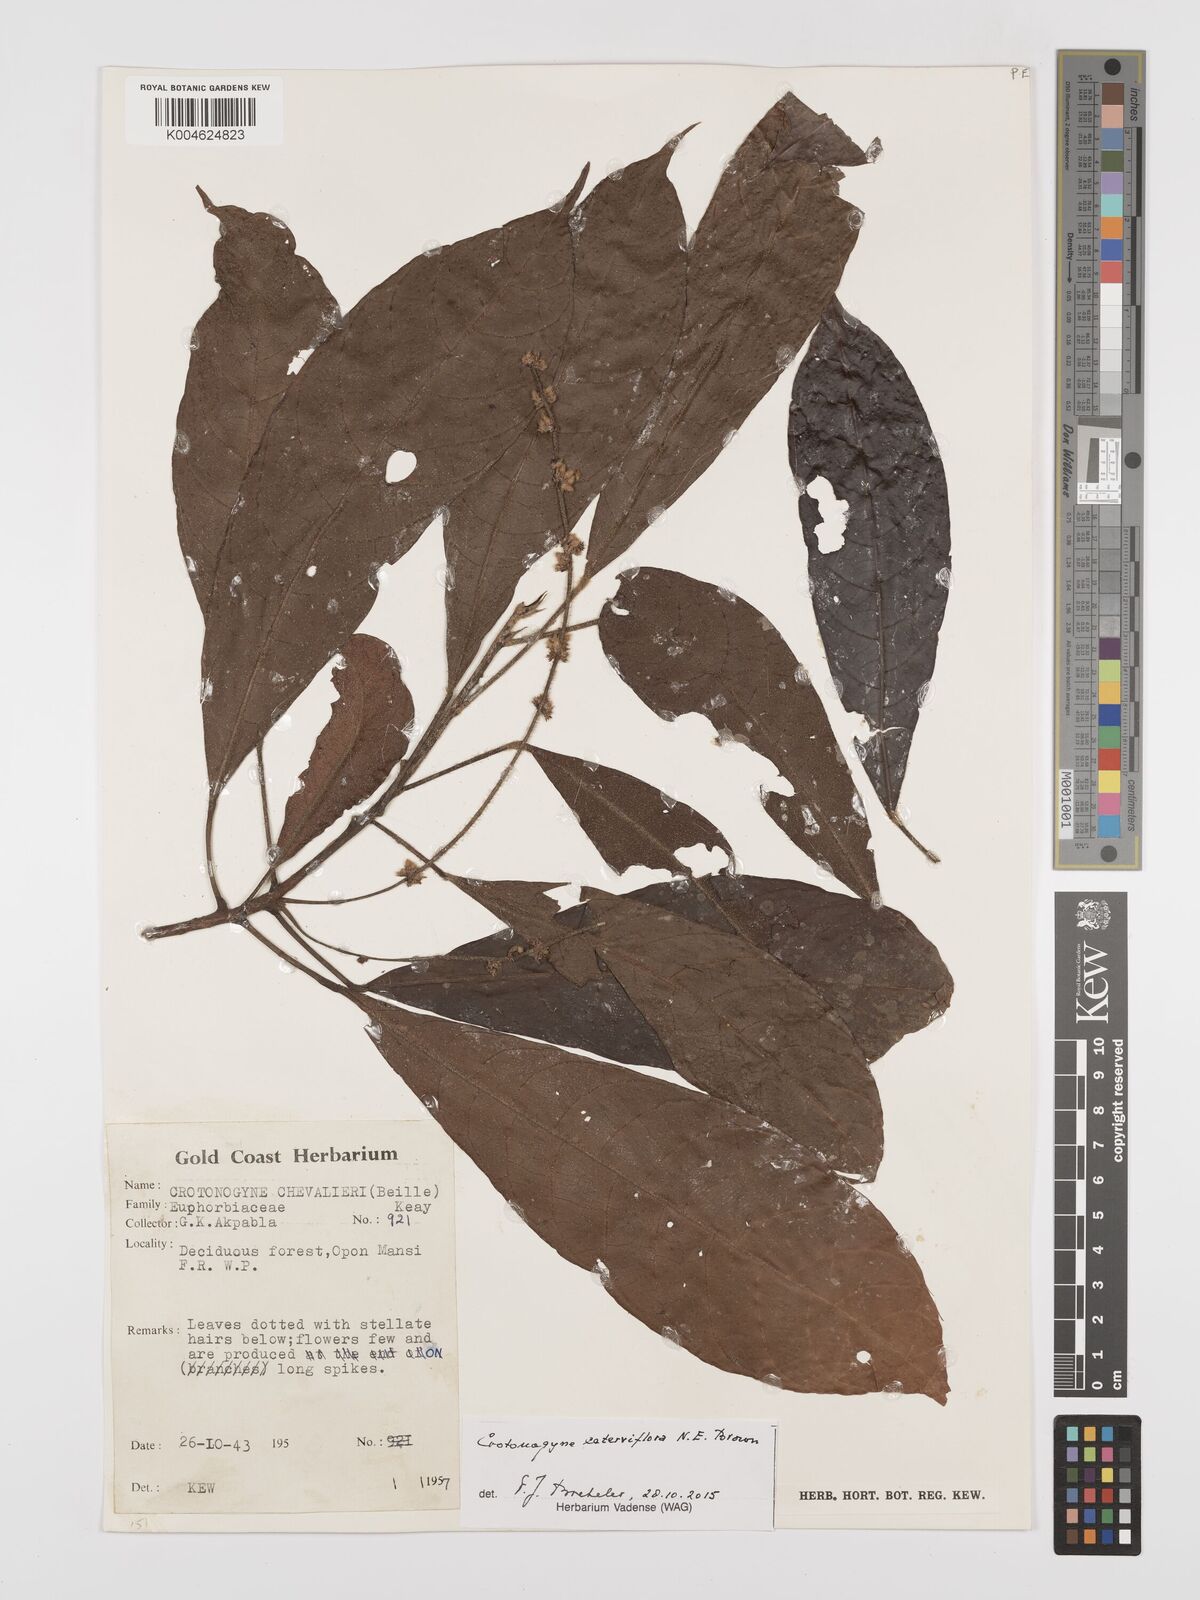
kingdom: Plantae
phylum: Tracheophyta
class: Magnoliopsida
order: Malpighiales
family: Euphorbiaceae
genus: Crotonogyne
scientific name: Crotonogyne caterviflora
